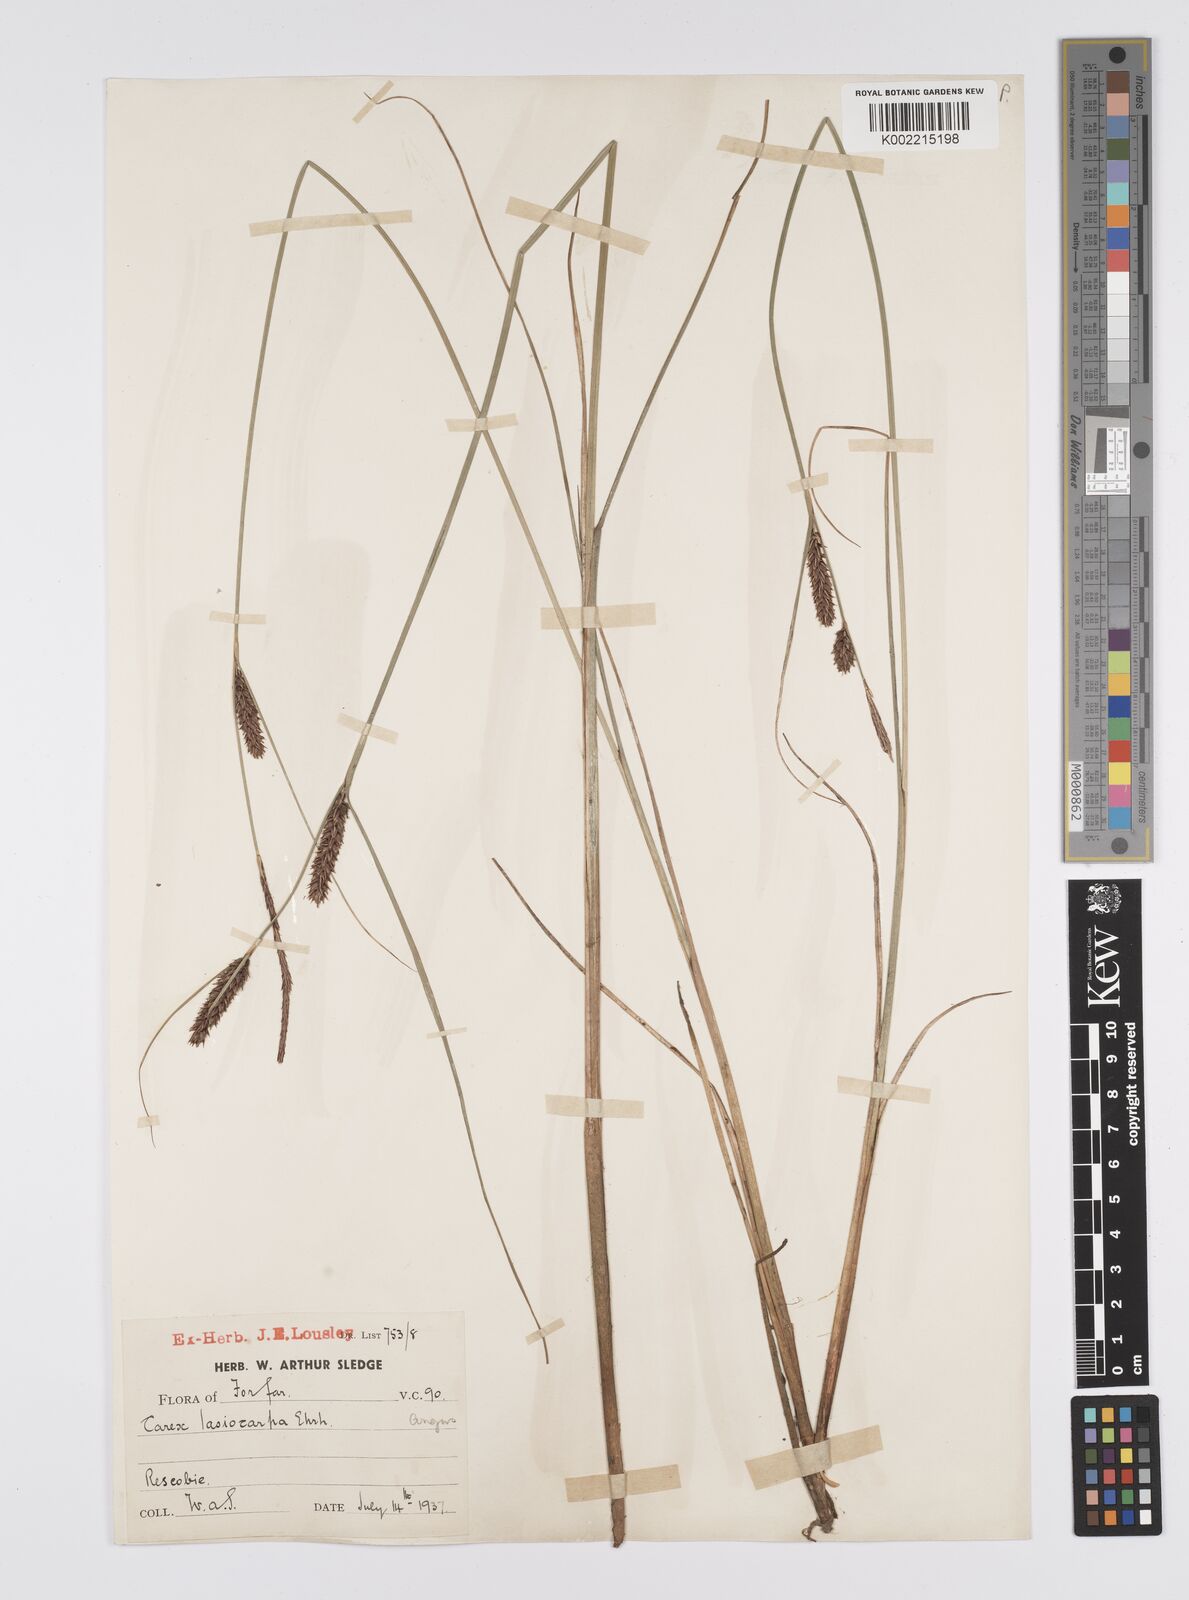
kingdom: Plantae
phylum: Tracheophyta
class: Liliopsida
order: Poales
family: Cyperaceae
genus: Carex
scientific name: Carex lasiocarpa
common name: Slender sedge
